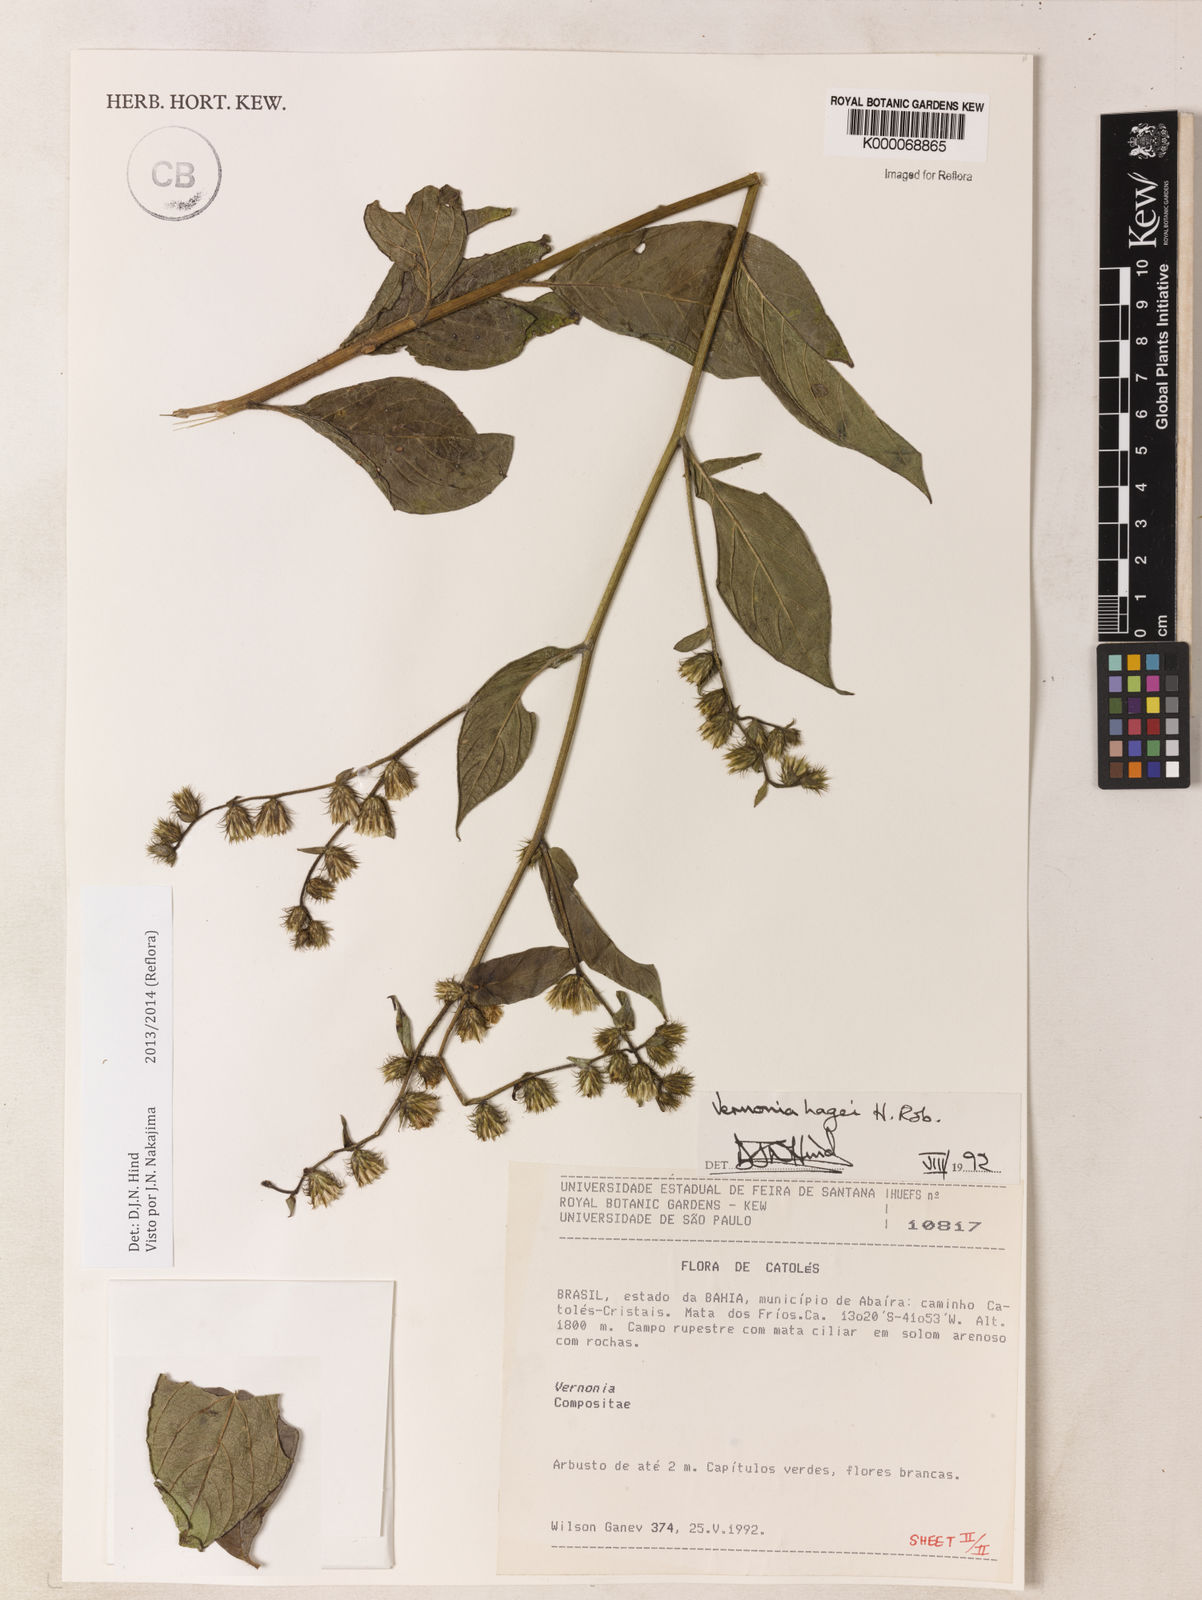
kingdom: Plantae
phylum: Tracheophyta
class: Magnoliopsida
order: Asterales
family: Asteraceae
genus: Lepidaploa
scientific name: Lepidaploa hagei
